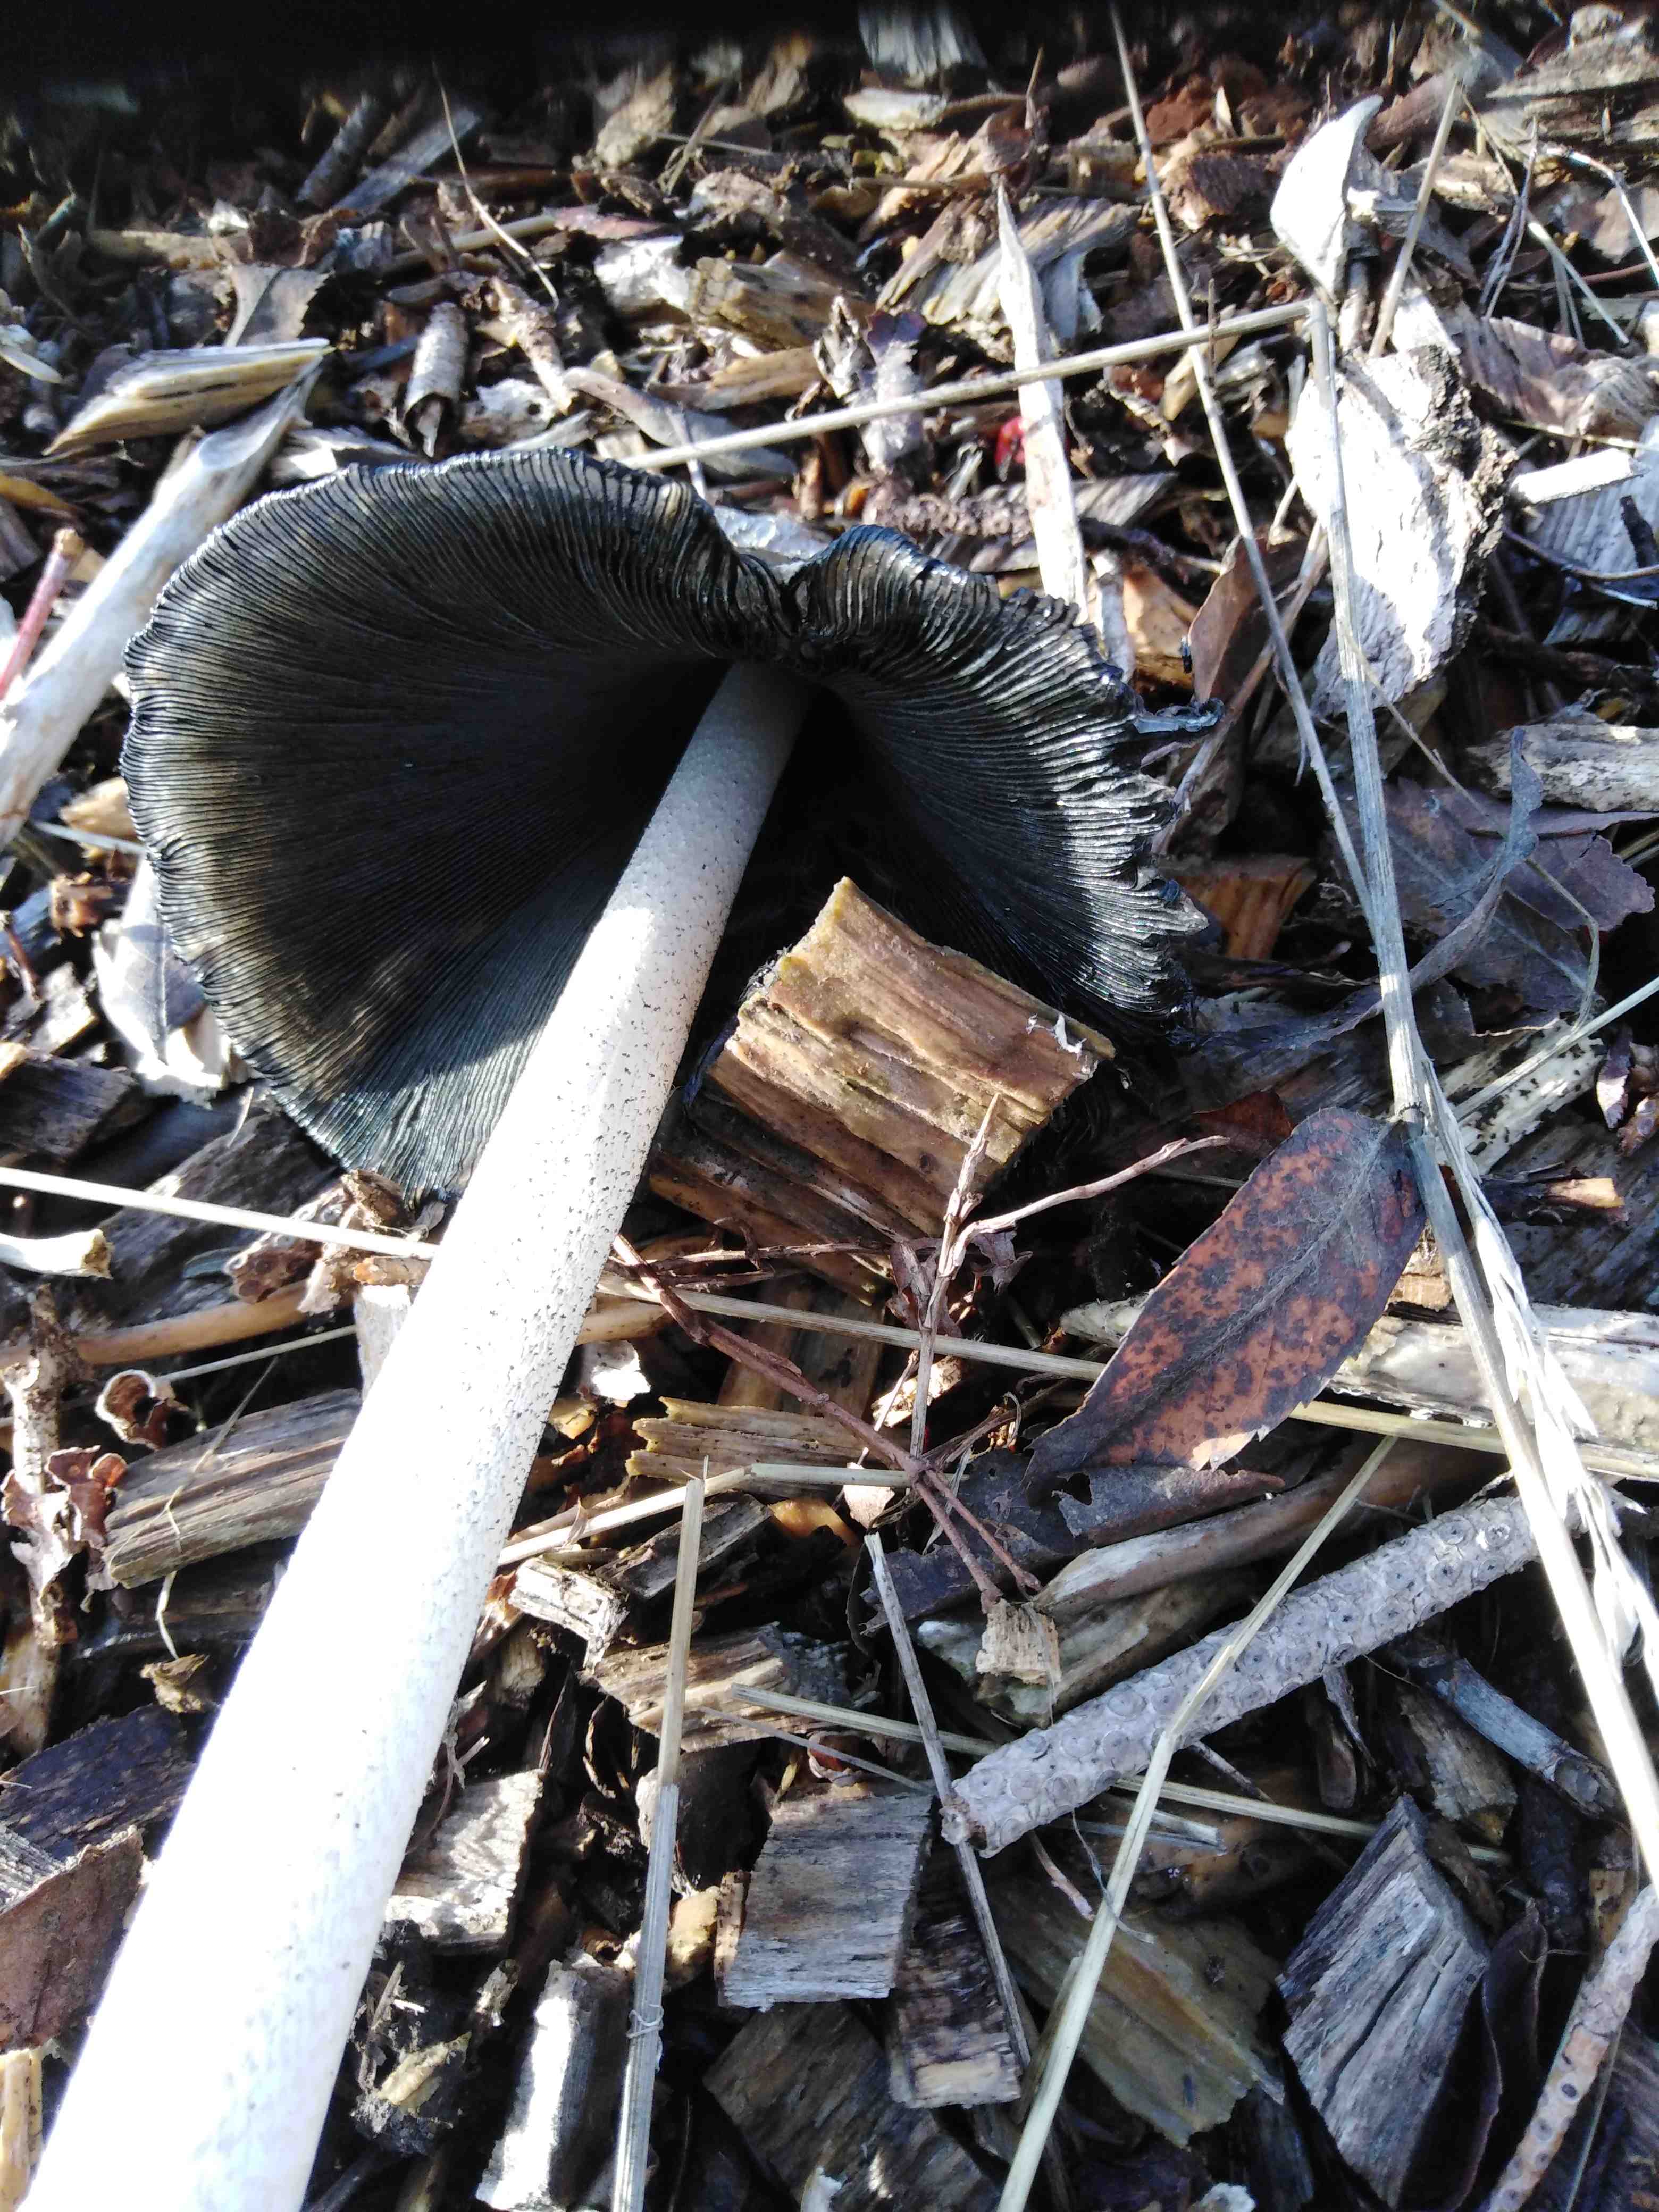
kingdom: Fungi
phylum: Basidiomycota
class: Agaricomycetes
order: Agaricales
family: Psathyrellaceae
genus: Coprinopsis
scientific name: Coprinopsis picacea
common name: skade-blækhat
